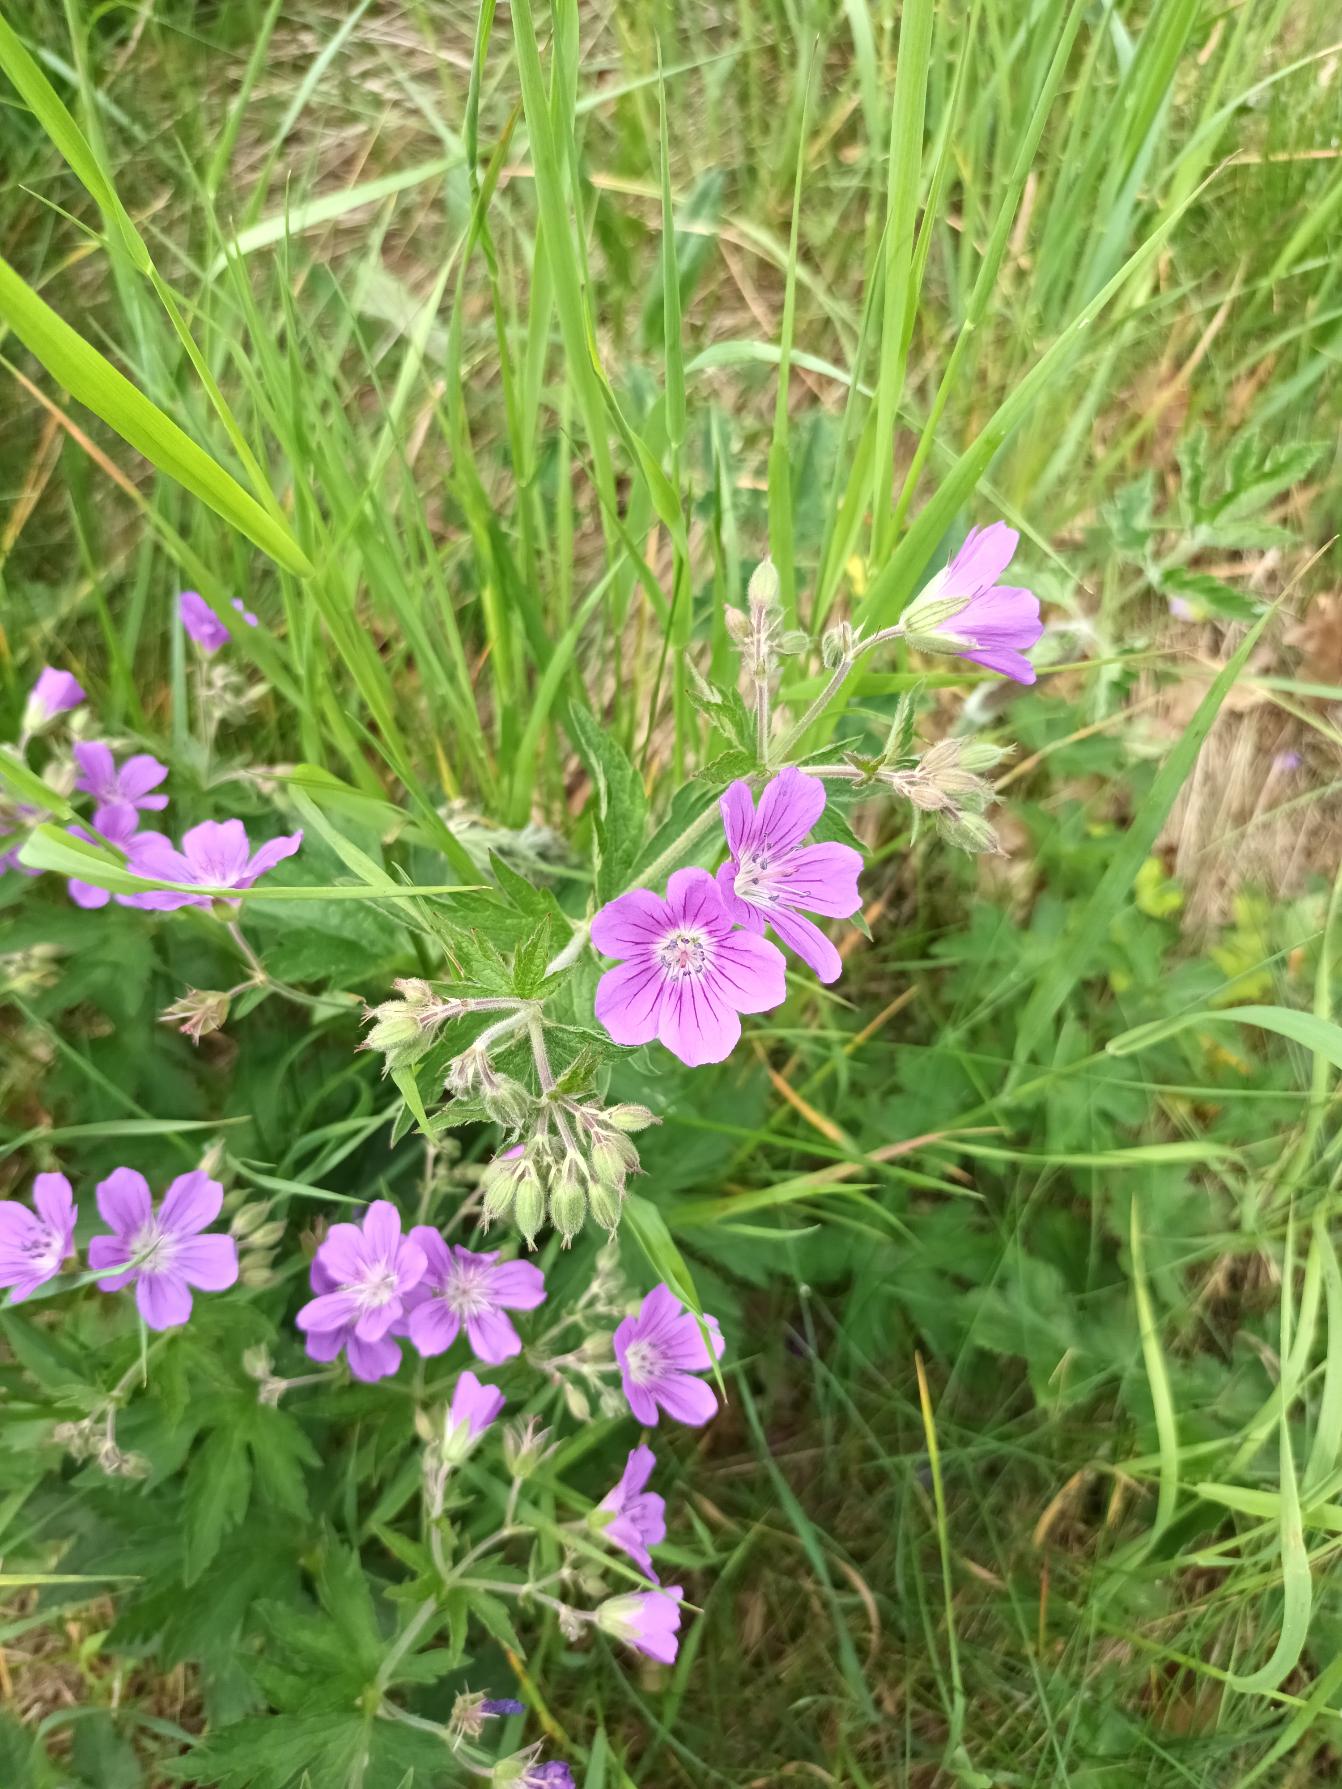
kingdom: Plantae
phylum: Tracheophyta
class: Magnoliopsida
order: Geraniales
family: Geraniaceae
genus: Geranium
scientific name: Geranium sylvaticum
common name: Skov-storkenæb
